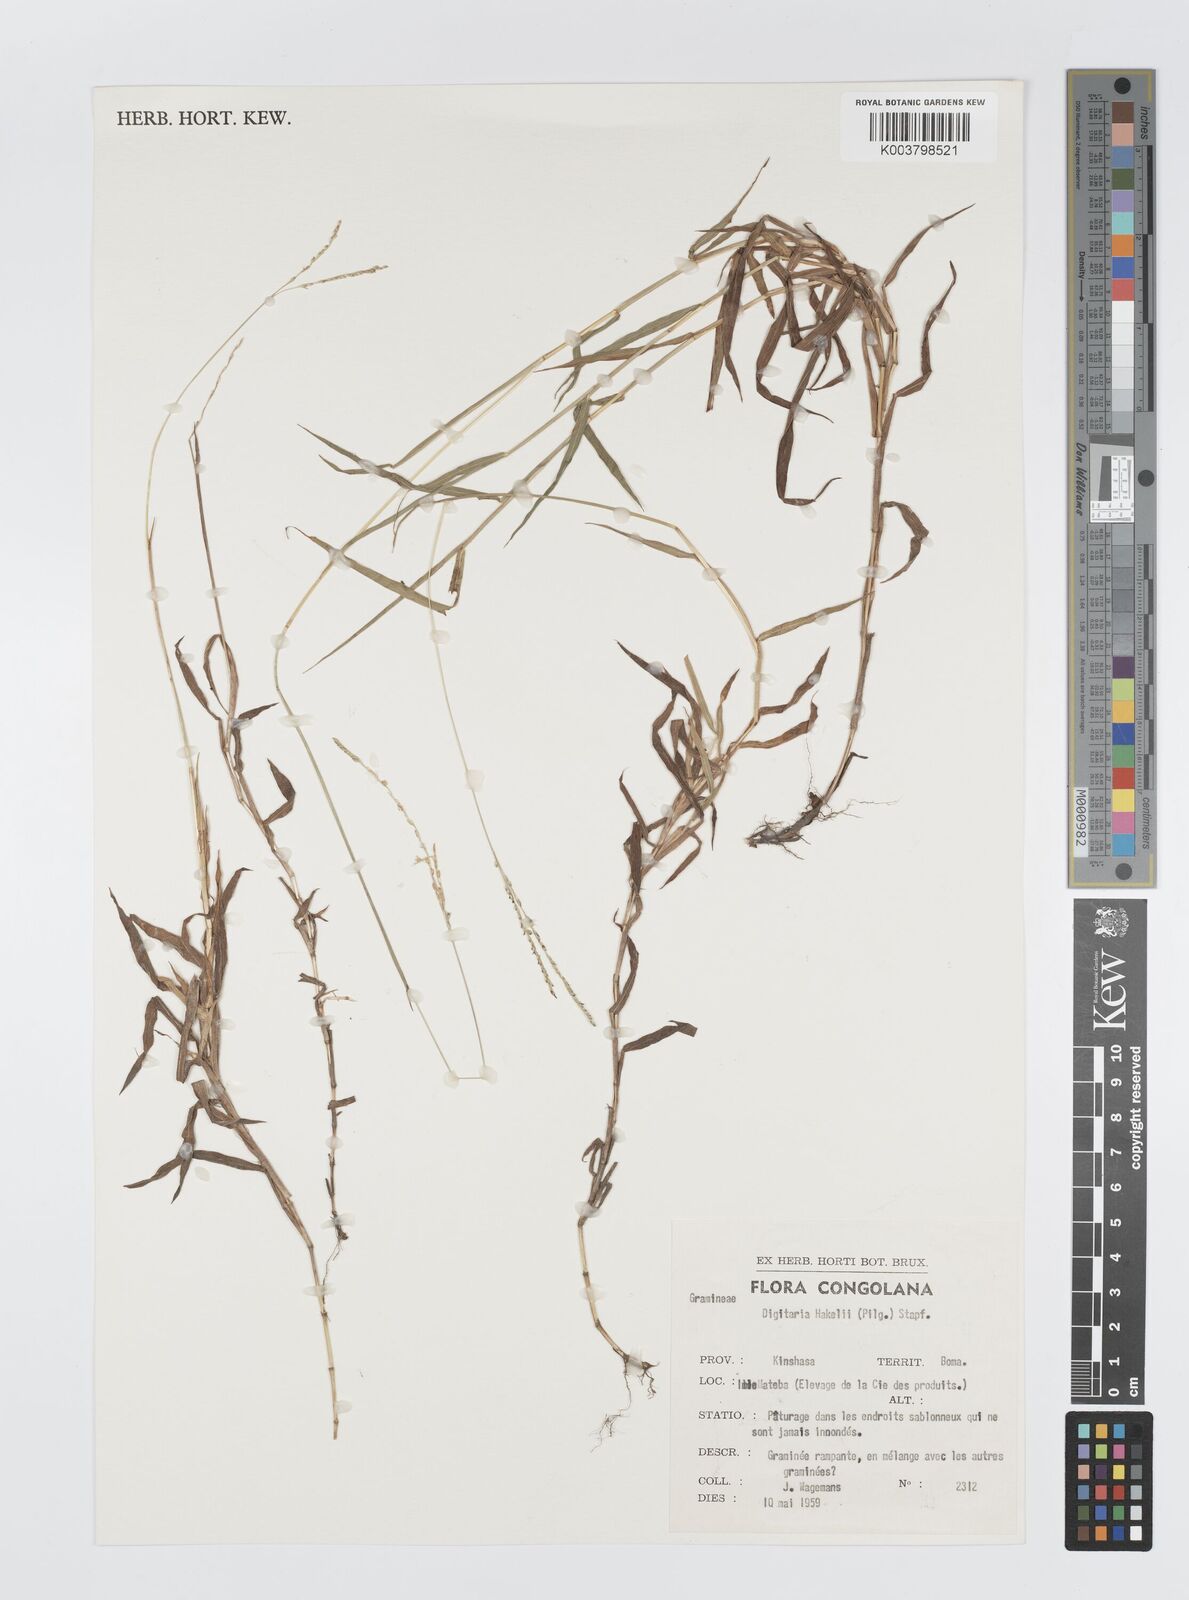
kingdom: Plantae
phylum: Tracheophyta
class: Liliopsida
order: Poales
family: Poaceae
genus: Digitaria
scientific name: Digitaria abyssinica
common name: African couchgrass
